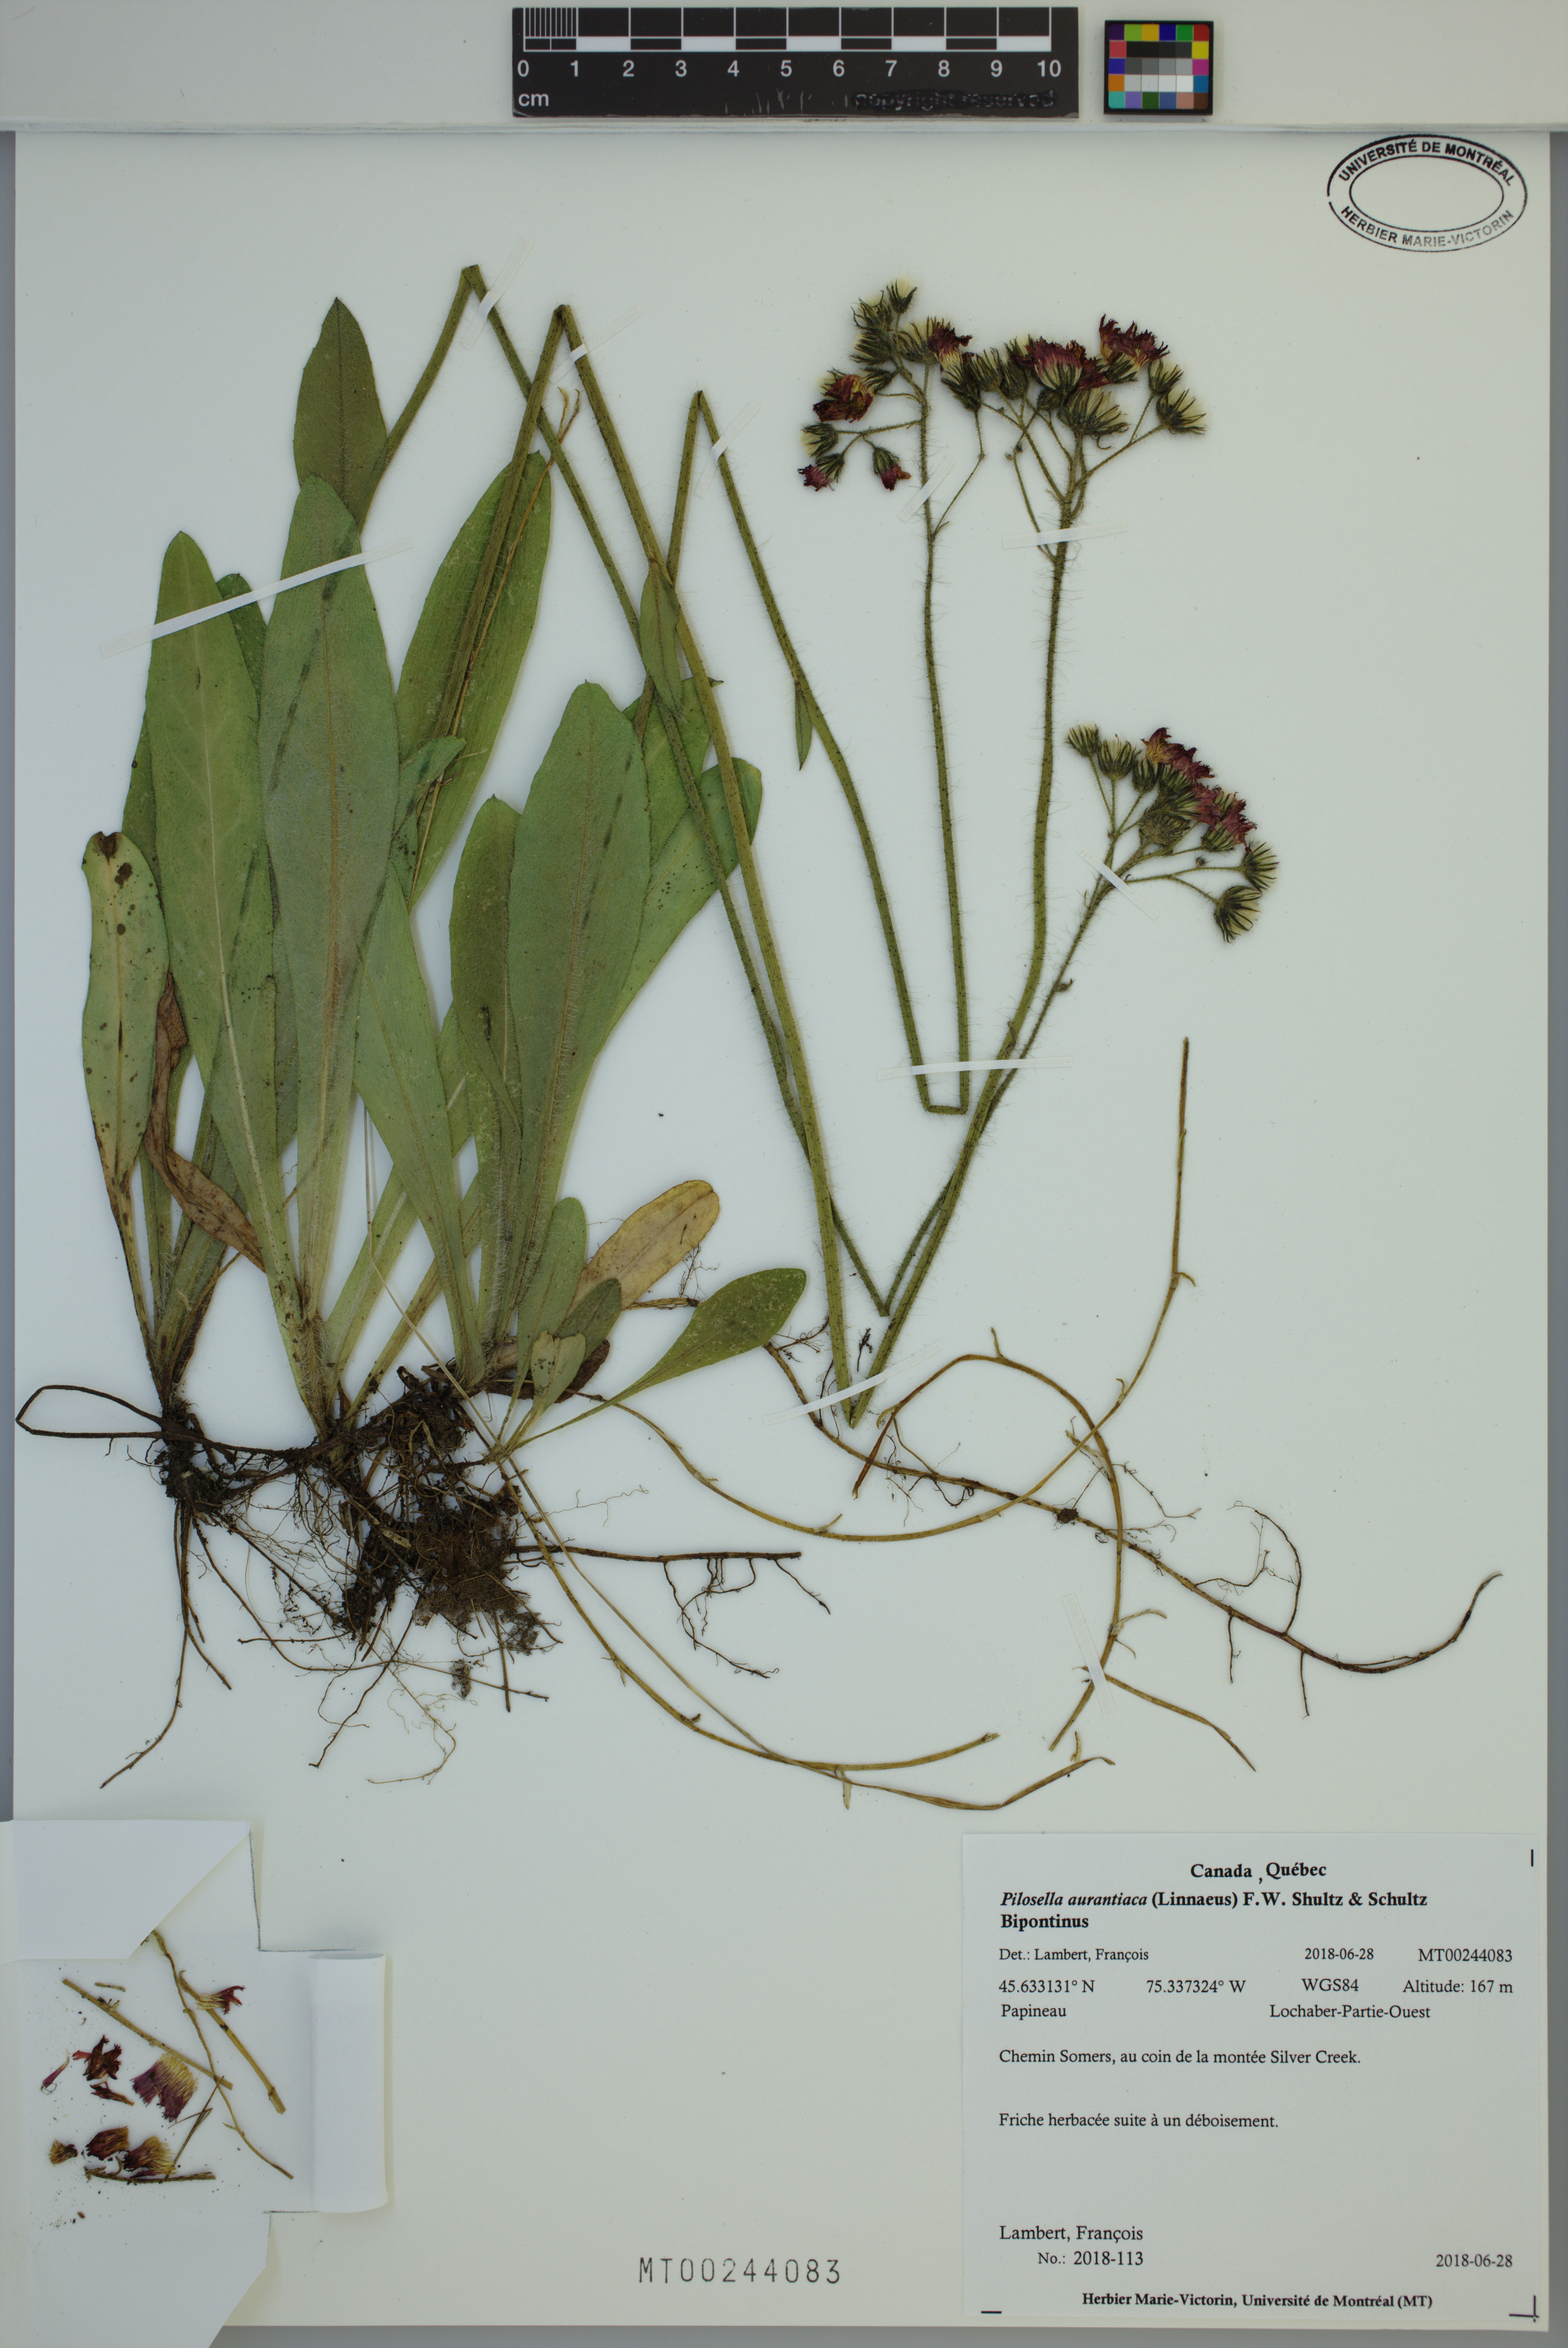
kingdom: Plantae
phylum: Tracheophyta
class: Magnoliopsida
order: Asterales
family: Asteraceae
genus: Pilosella
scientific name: Pilosella aurantiaca
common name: Fox-and-cubs
